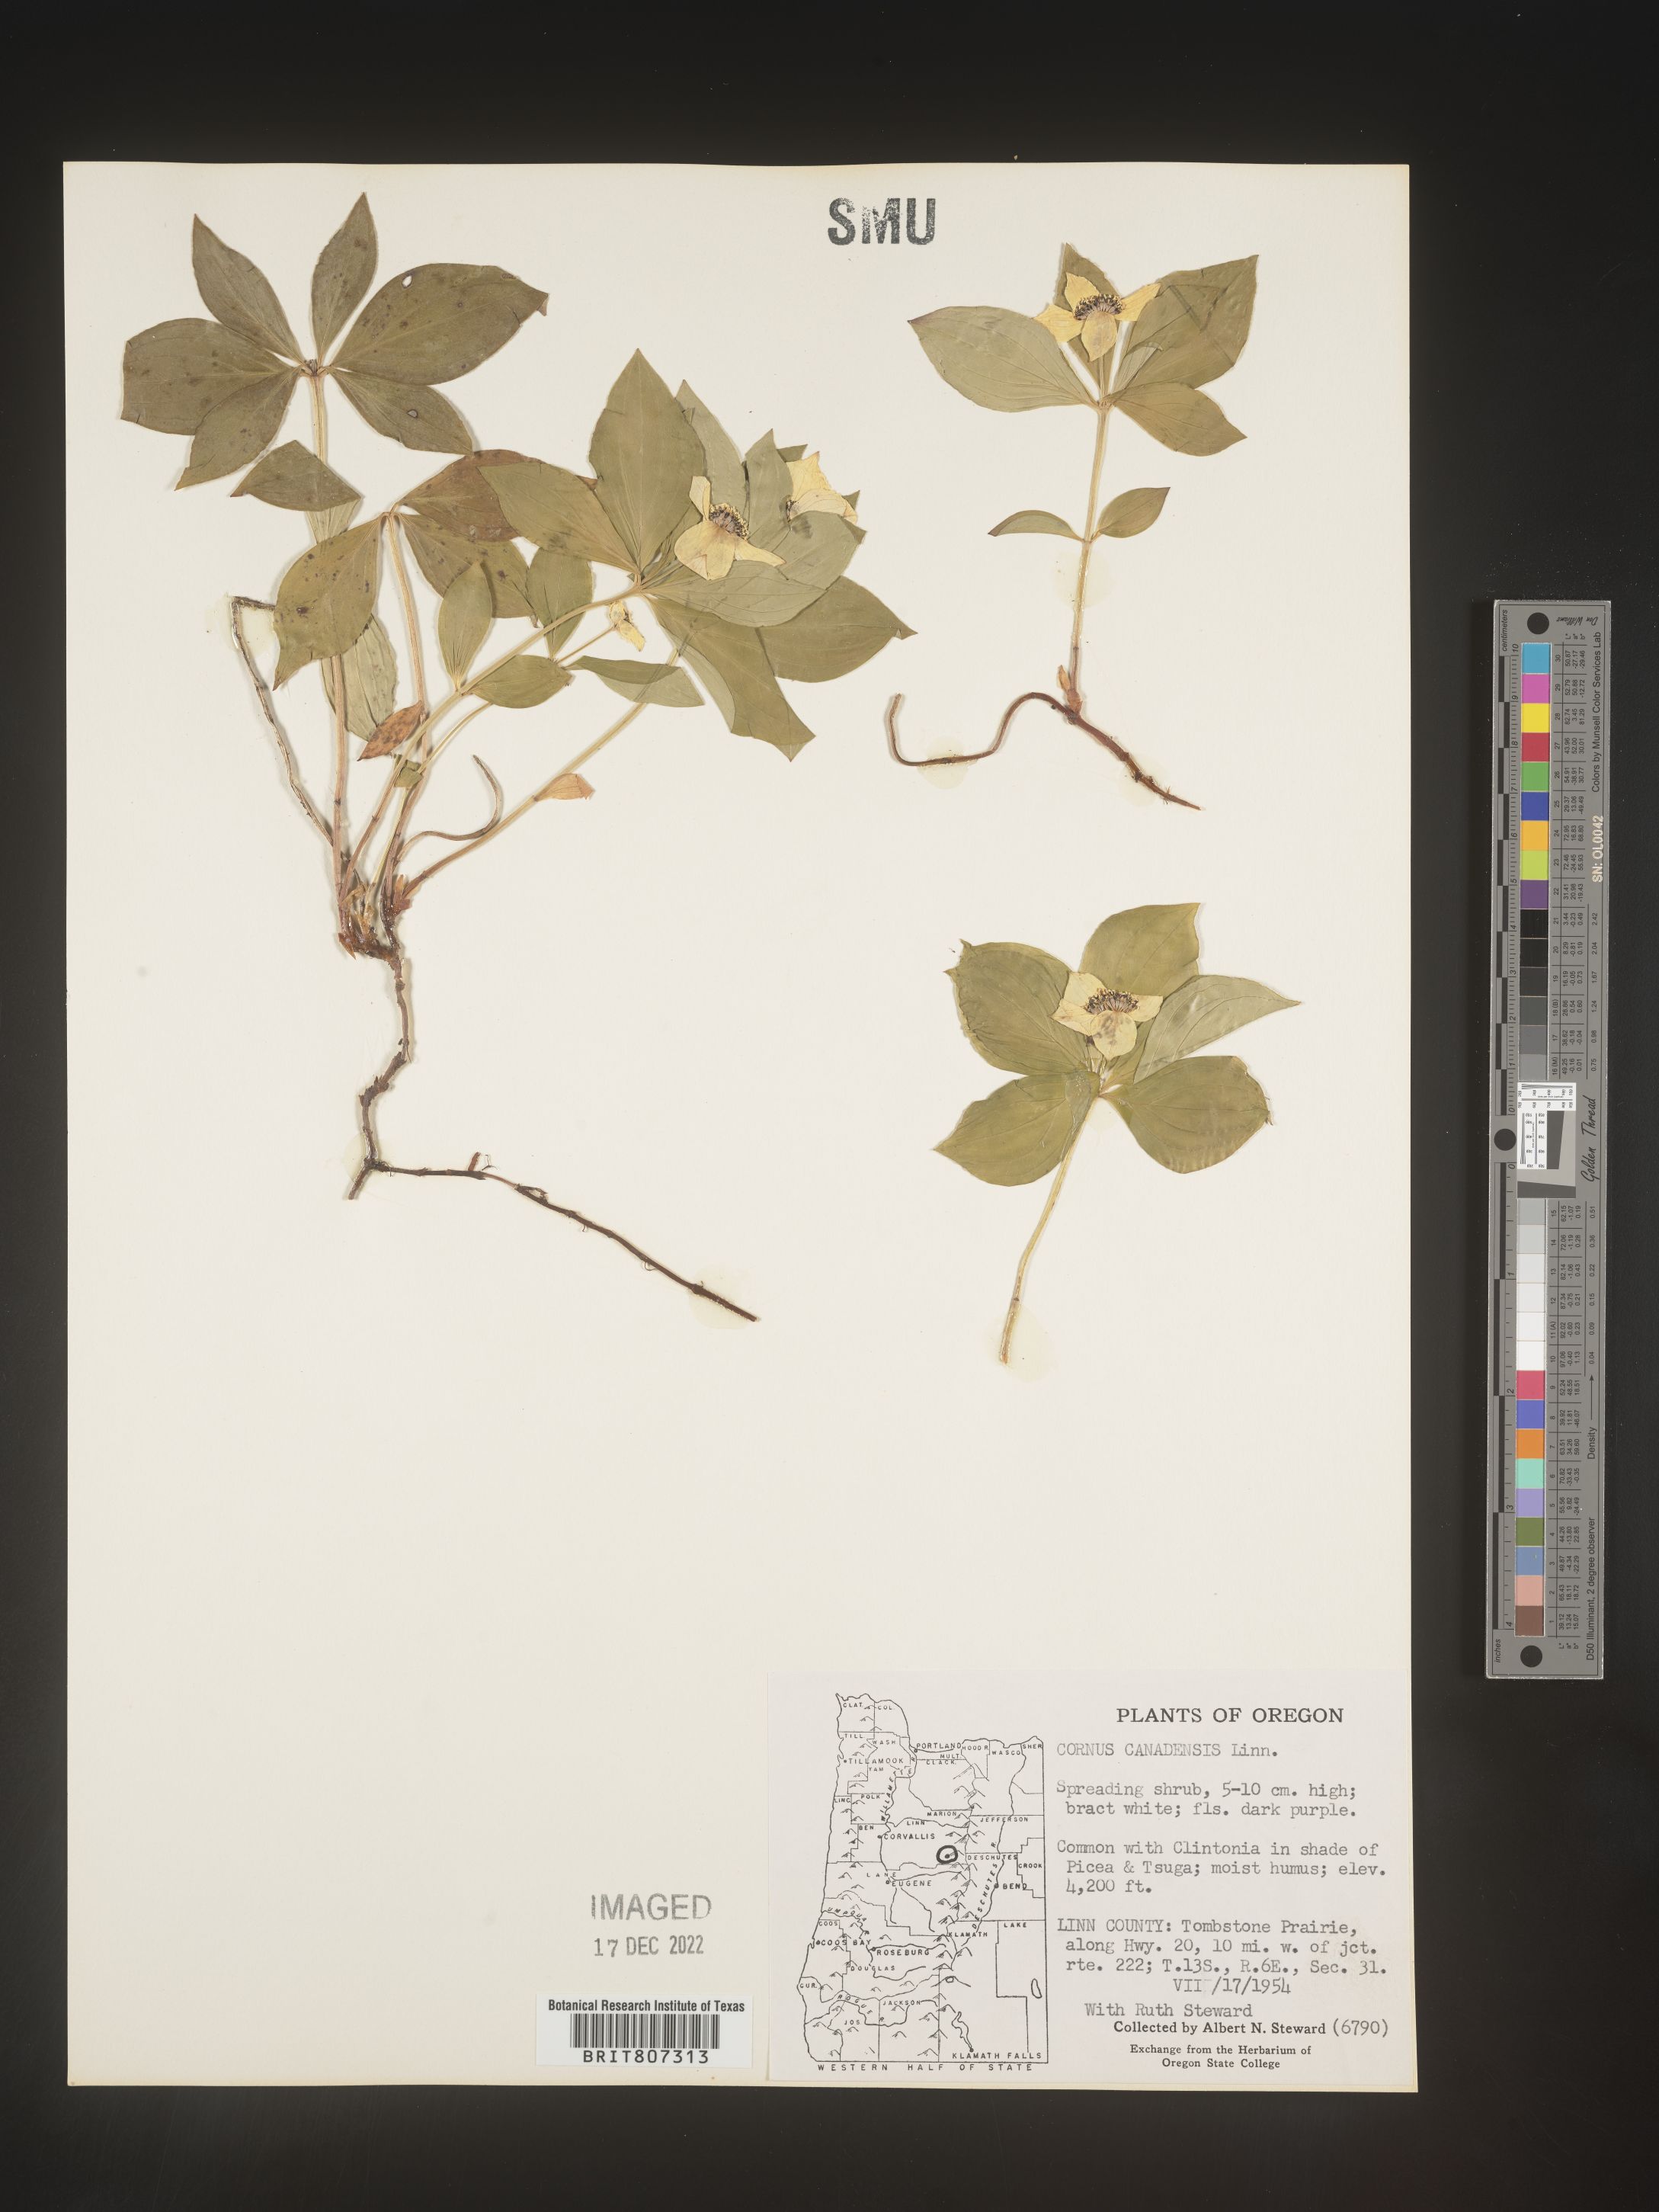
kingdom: Plantae
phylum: Tracheophyta
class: Magnoliopsida
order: Cornales
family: Cornaceae
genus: Cornus
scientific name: Cornus canadensis
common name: Creeping dogwood
